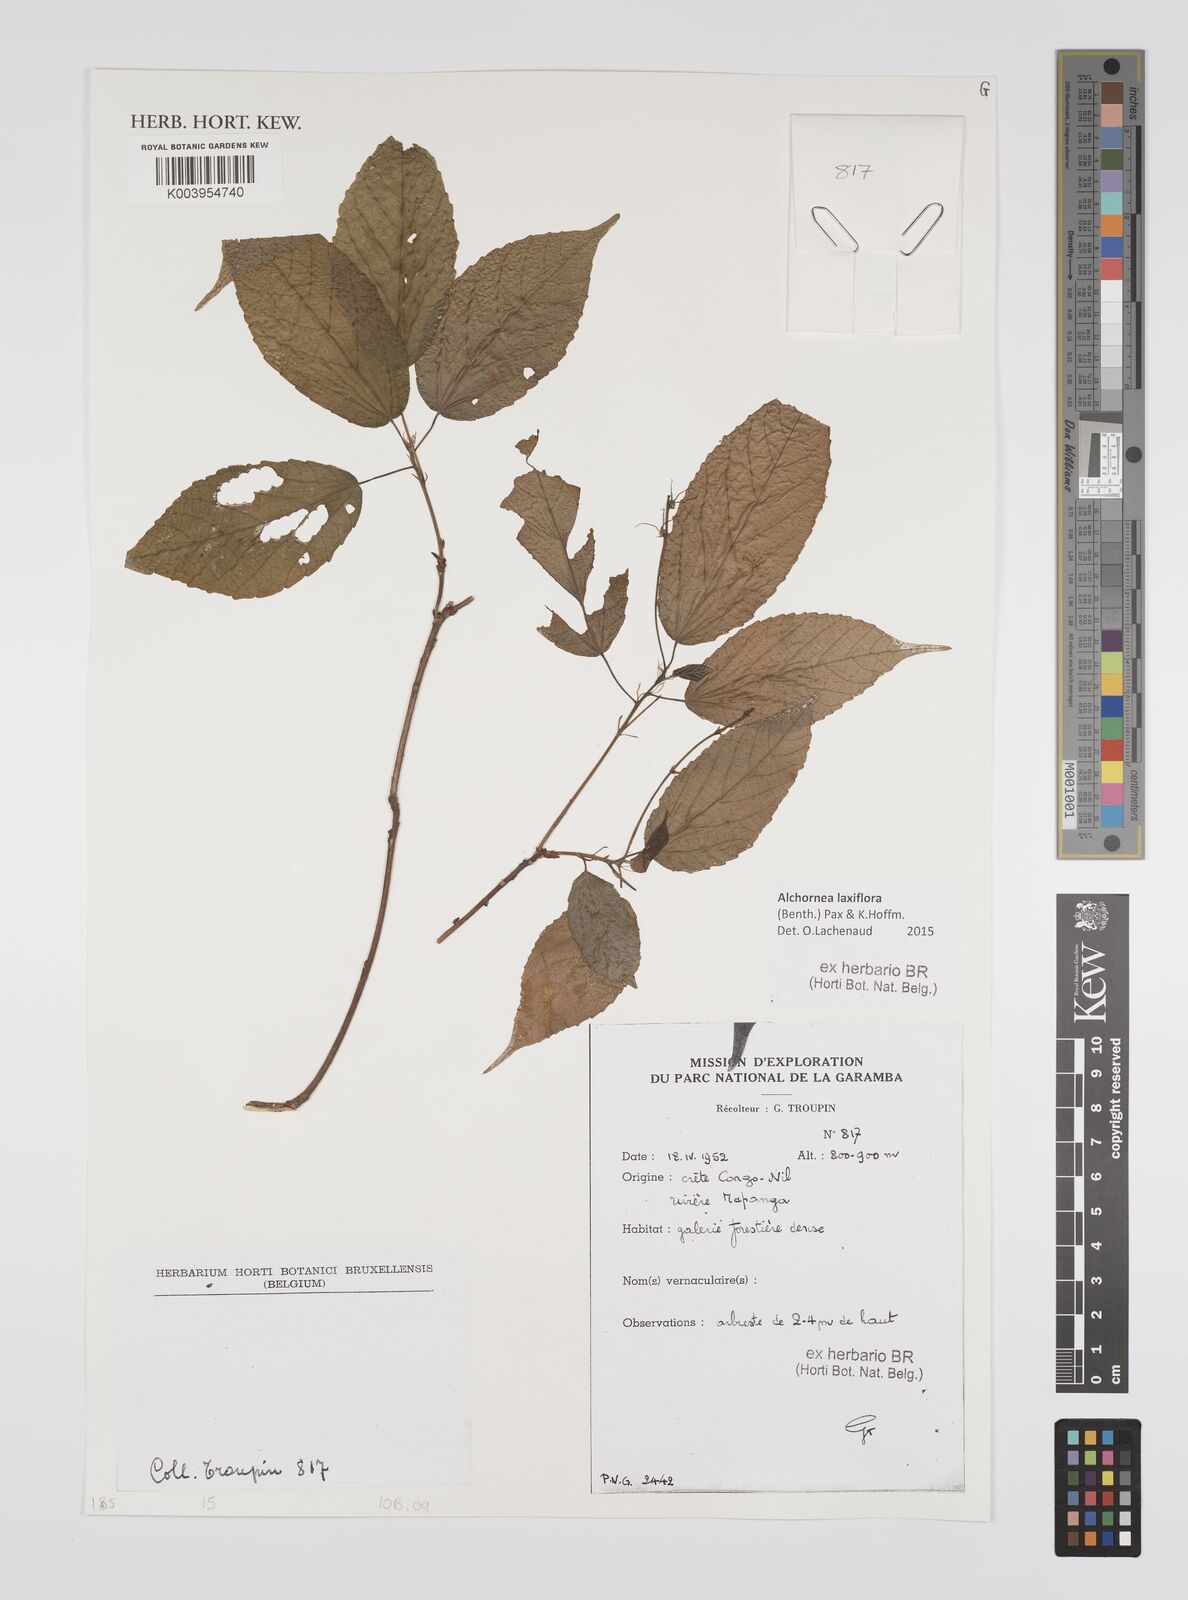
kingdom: Plantae
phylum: Tracheophyta
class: Magnoliopsida
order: Malpighiales
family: Euphorbiaceae
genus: Alchornea
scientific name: Alchornea laxiflora
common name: Lowveld bead-string
